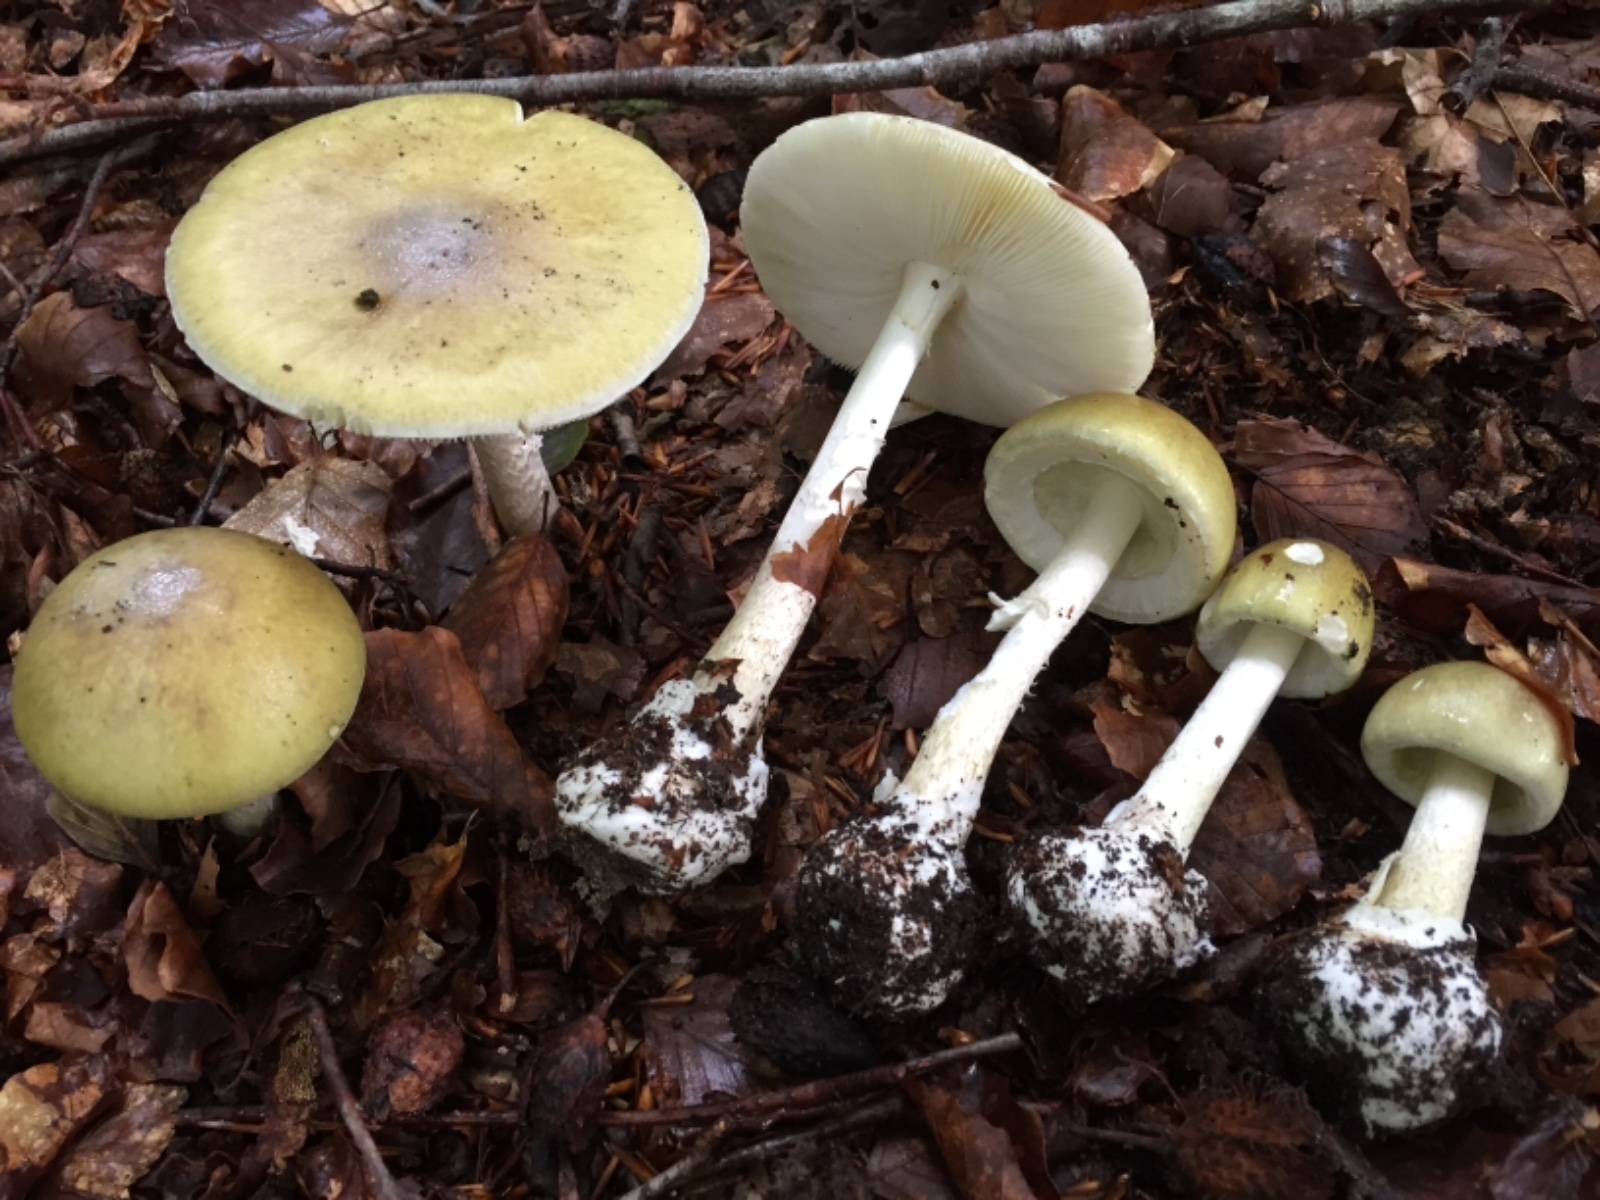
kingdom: Fungi
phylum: Basidiomycota
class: Agaricomycetes
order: Agaricales
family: Amanitaceae
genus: Amanita
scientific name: Amanita phalloides
